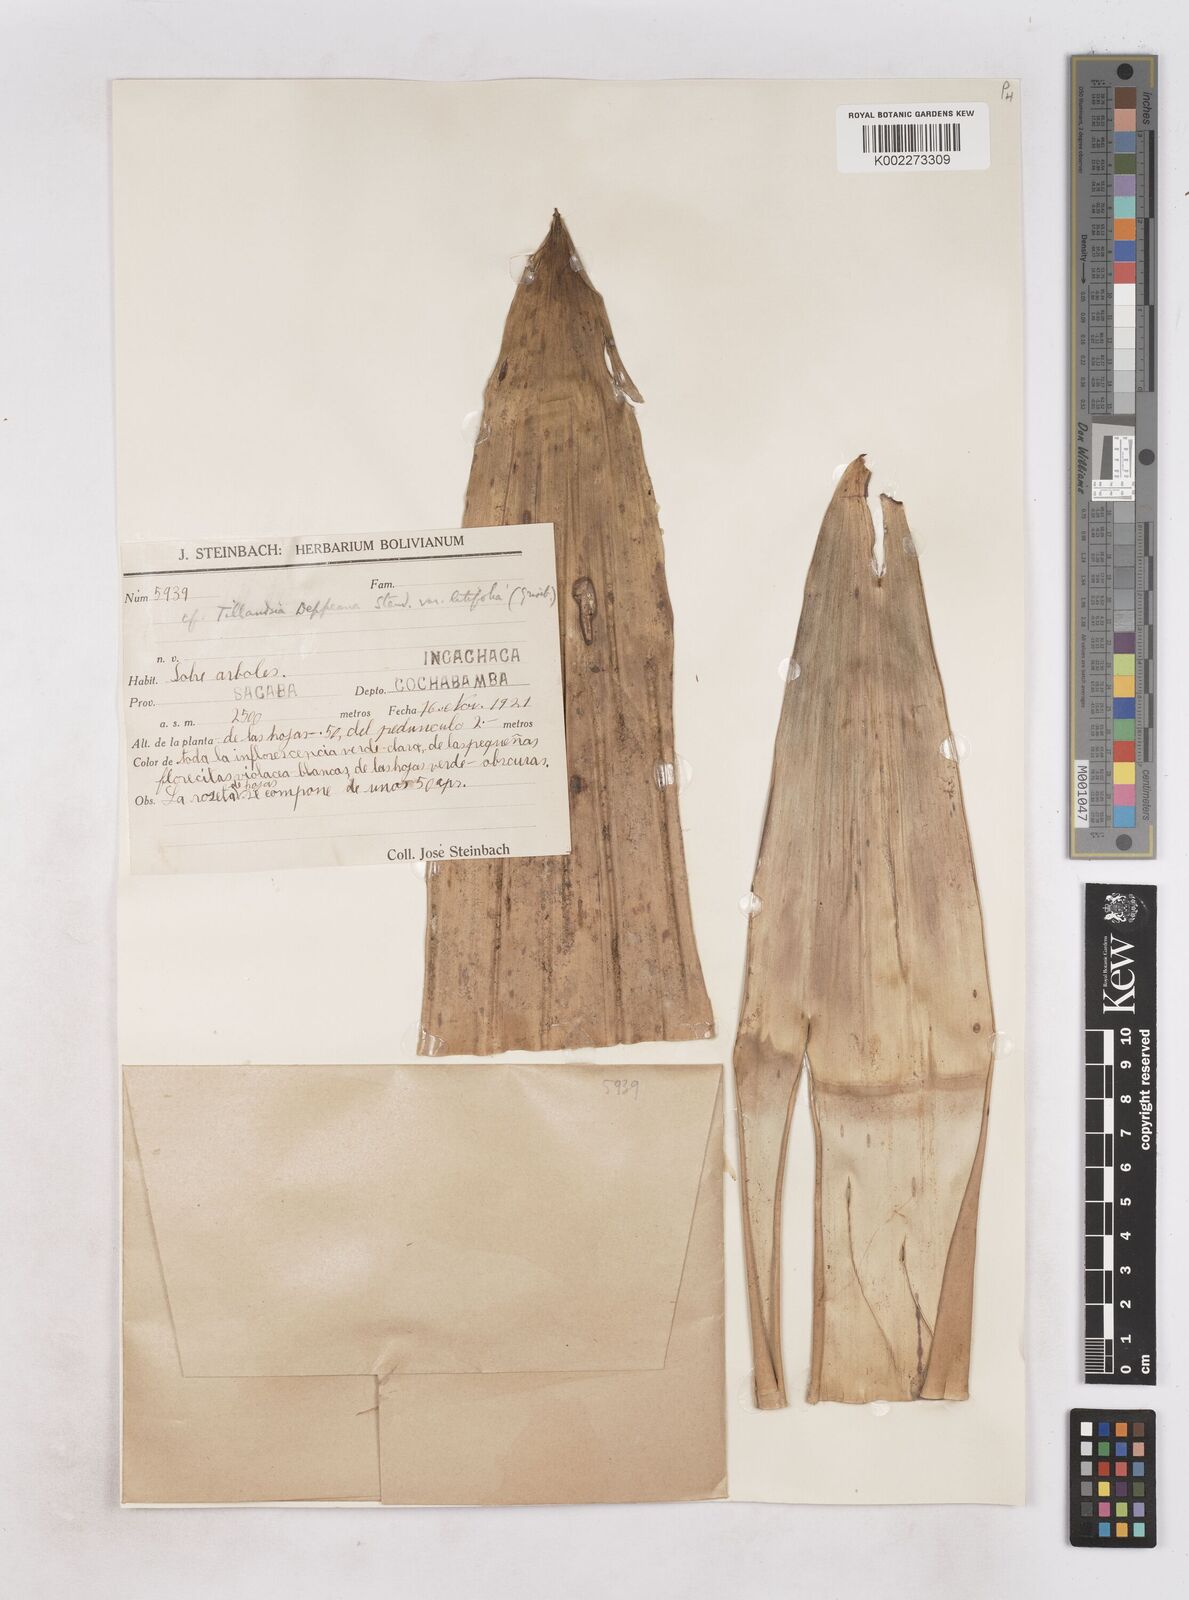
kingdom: Plantae
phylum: Tracheophyta
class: Liliopsida
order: Poales
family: Bromeliaceae
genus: Tillandsia
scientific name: Tillandsia deppeana
